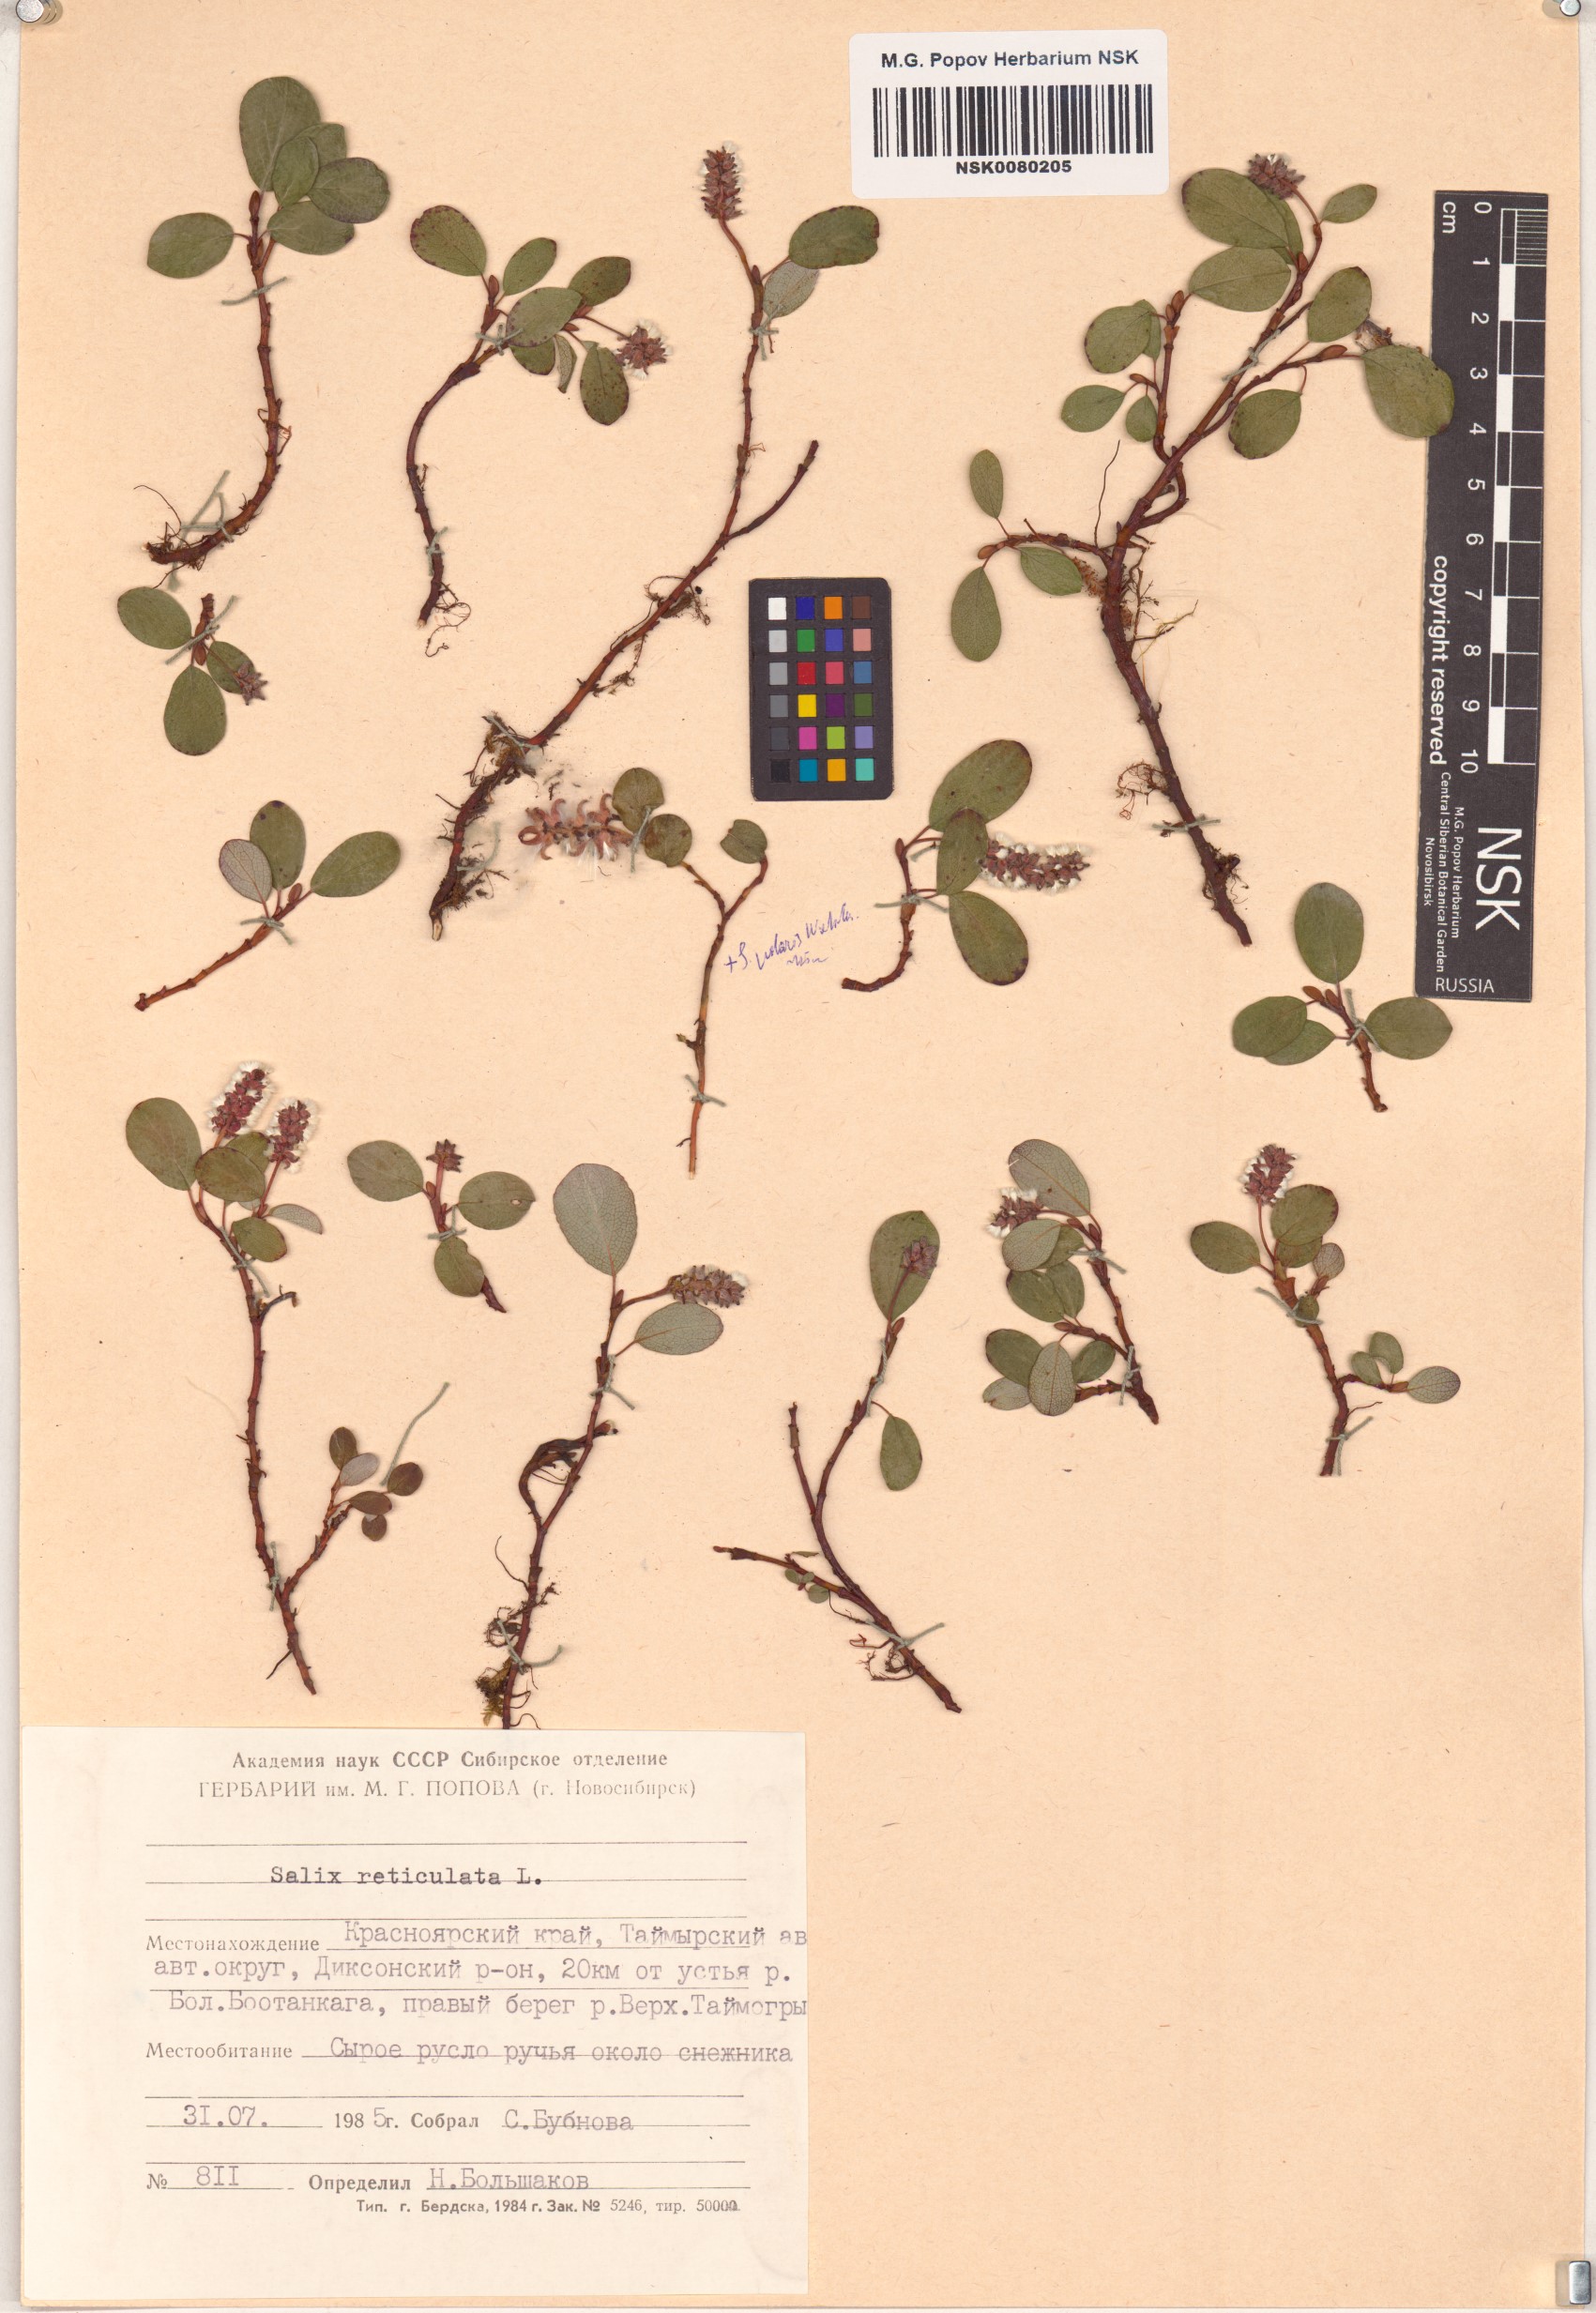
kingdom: Plantae
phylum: Tracheophyta
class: Magnoliopsida
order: Malpighiales
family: Salicaceae
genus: Salix
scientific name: Salix reticulata
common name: Net-leaved willow
